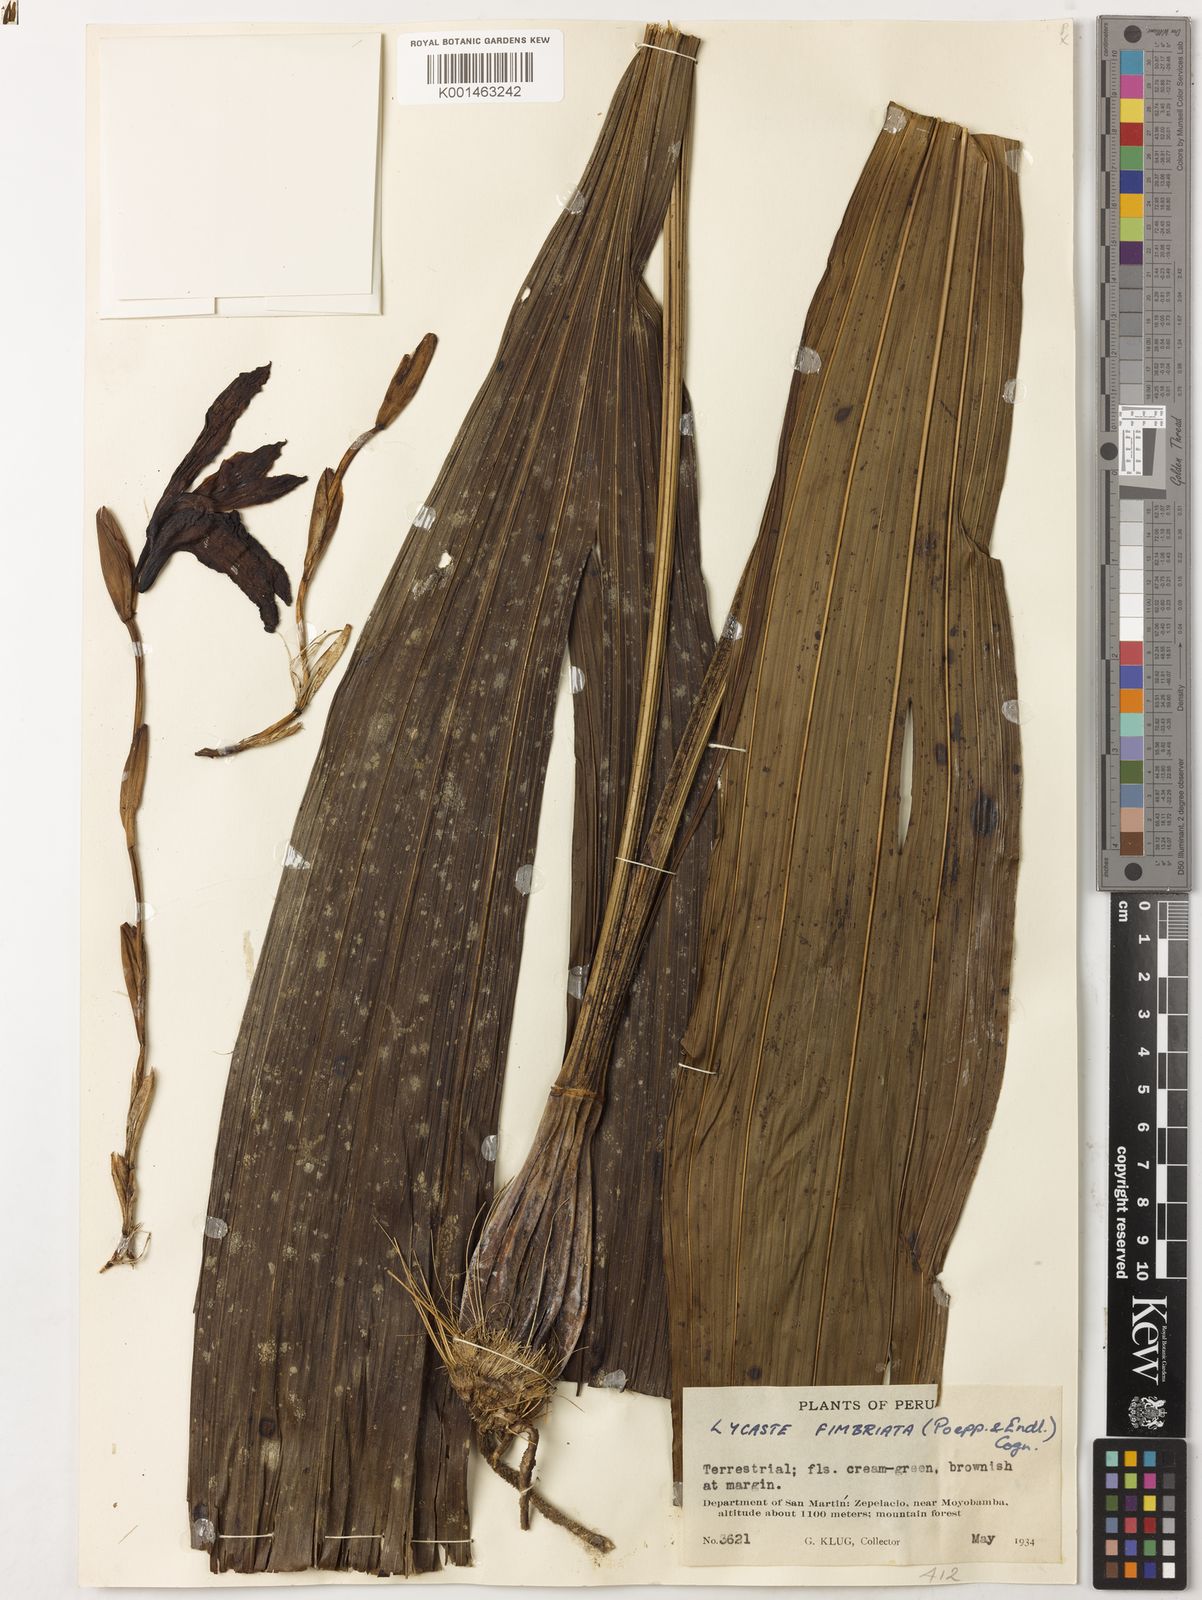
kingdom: Plantae
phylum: Tracheophyta
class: Liliopsida
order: Asparagales
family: Orchidaceae
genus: Ida
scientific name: Ida fimbriata
